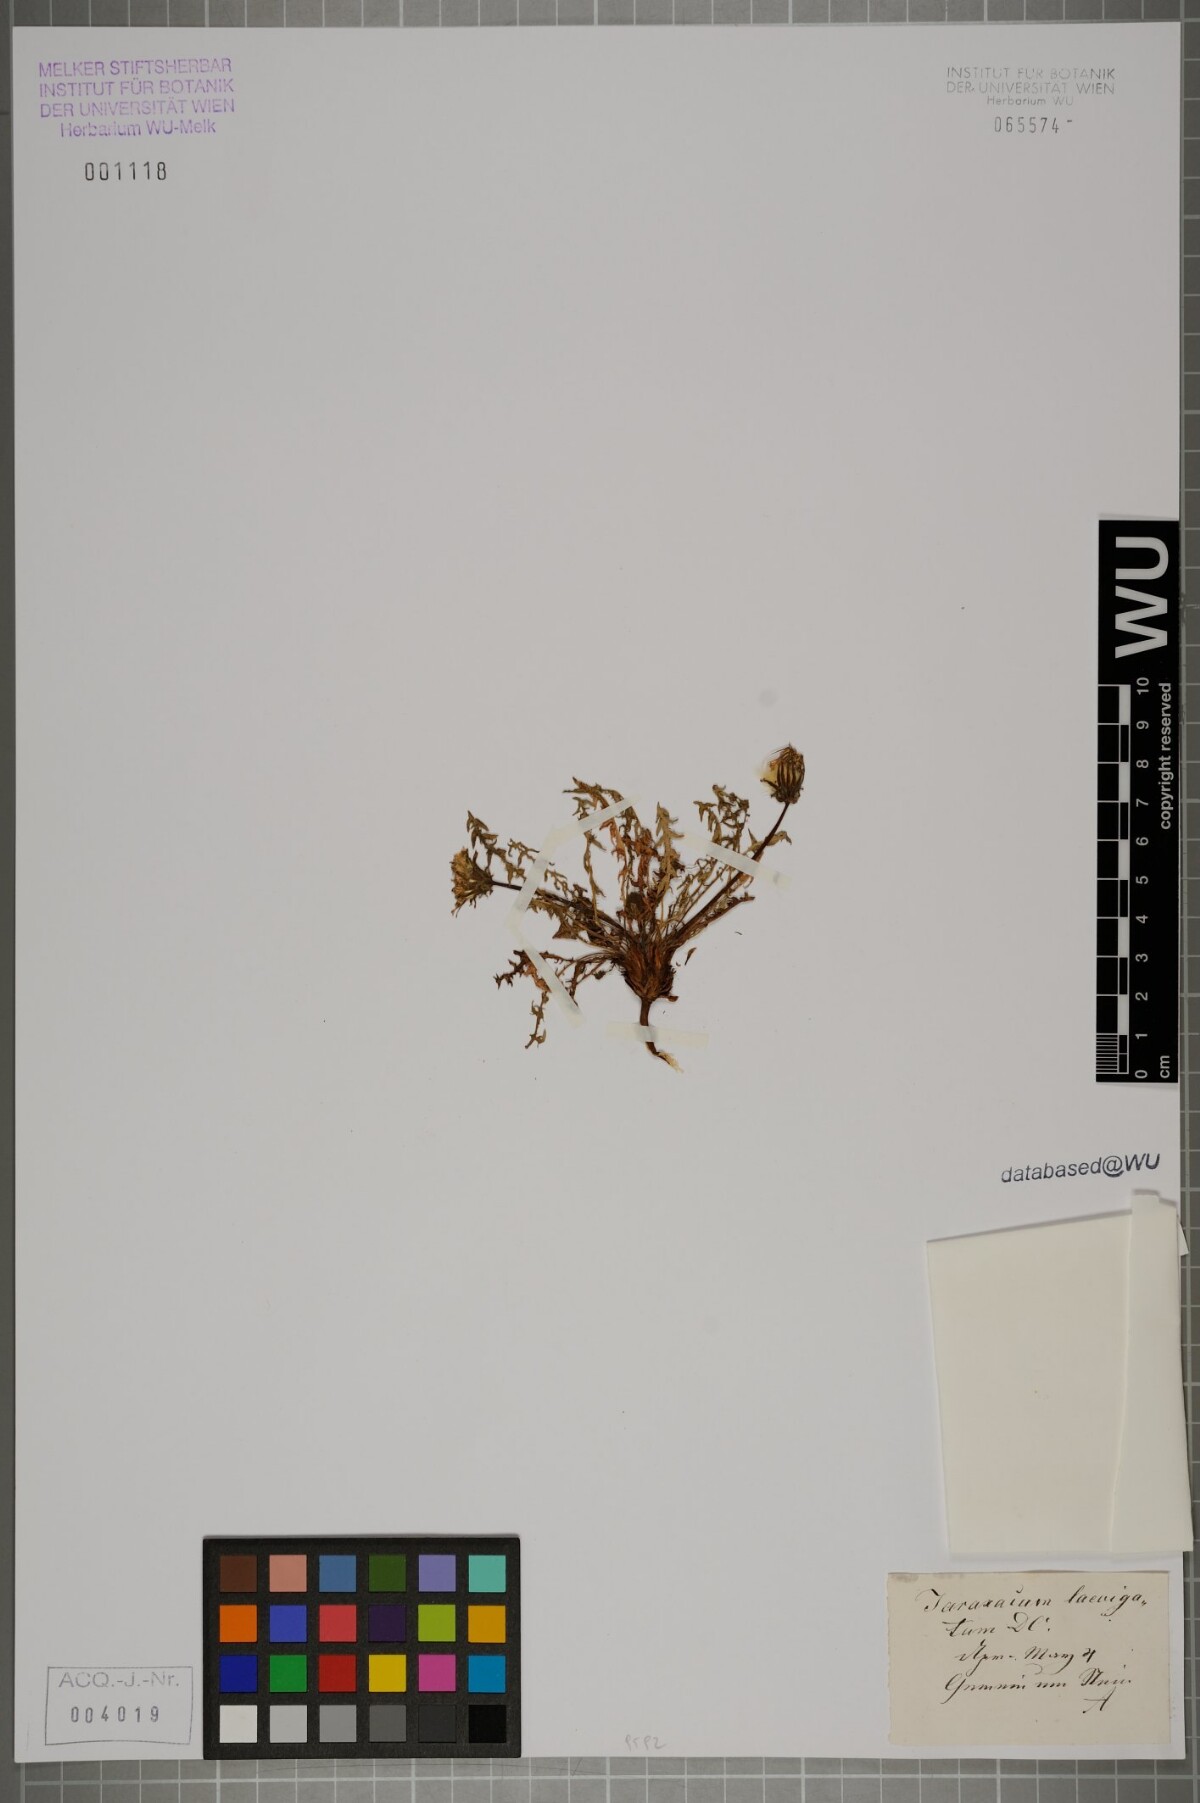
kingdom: Plantae
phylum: Tracheophyta
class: Magnoliopsida
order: Asterales
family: Asteraceae
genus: Taraxacum
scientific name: Taraxacum
